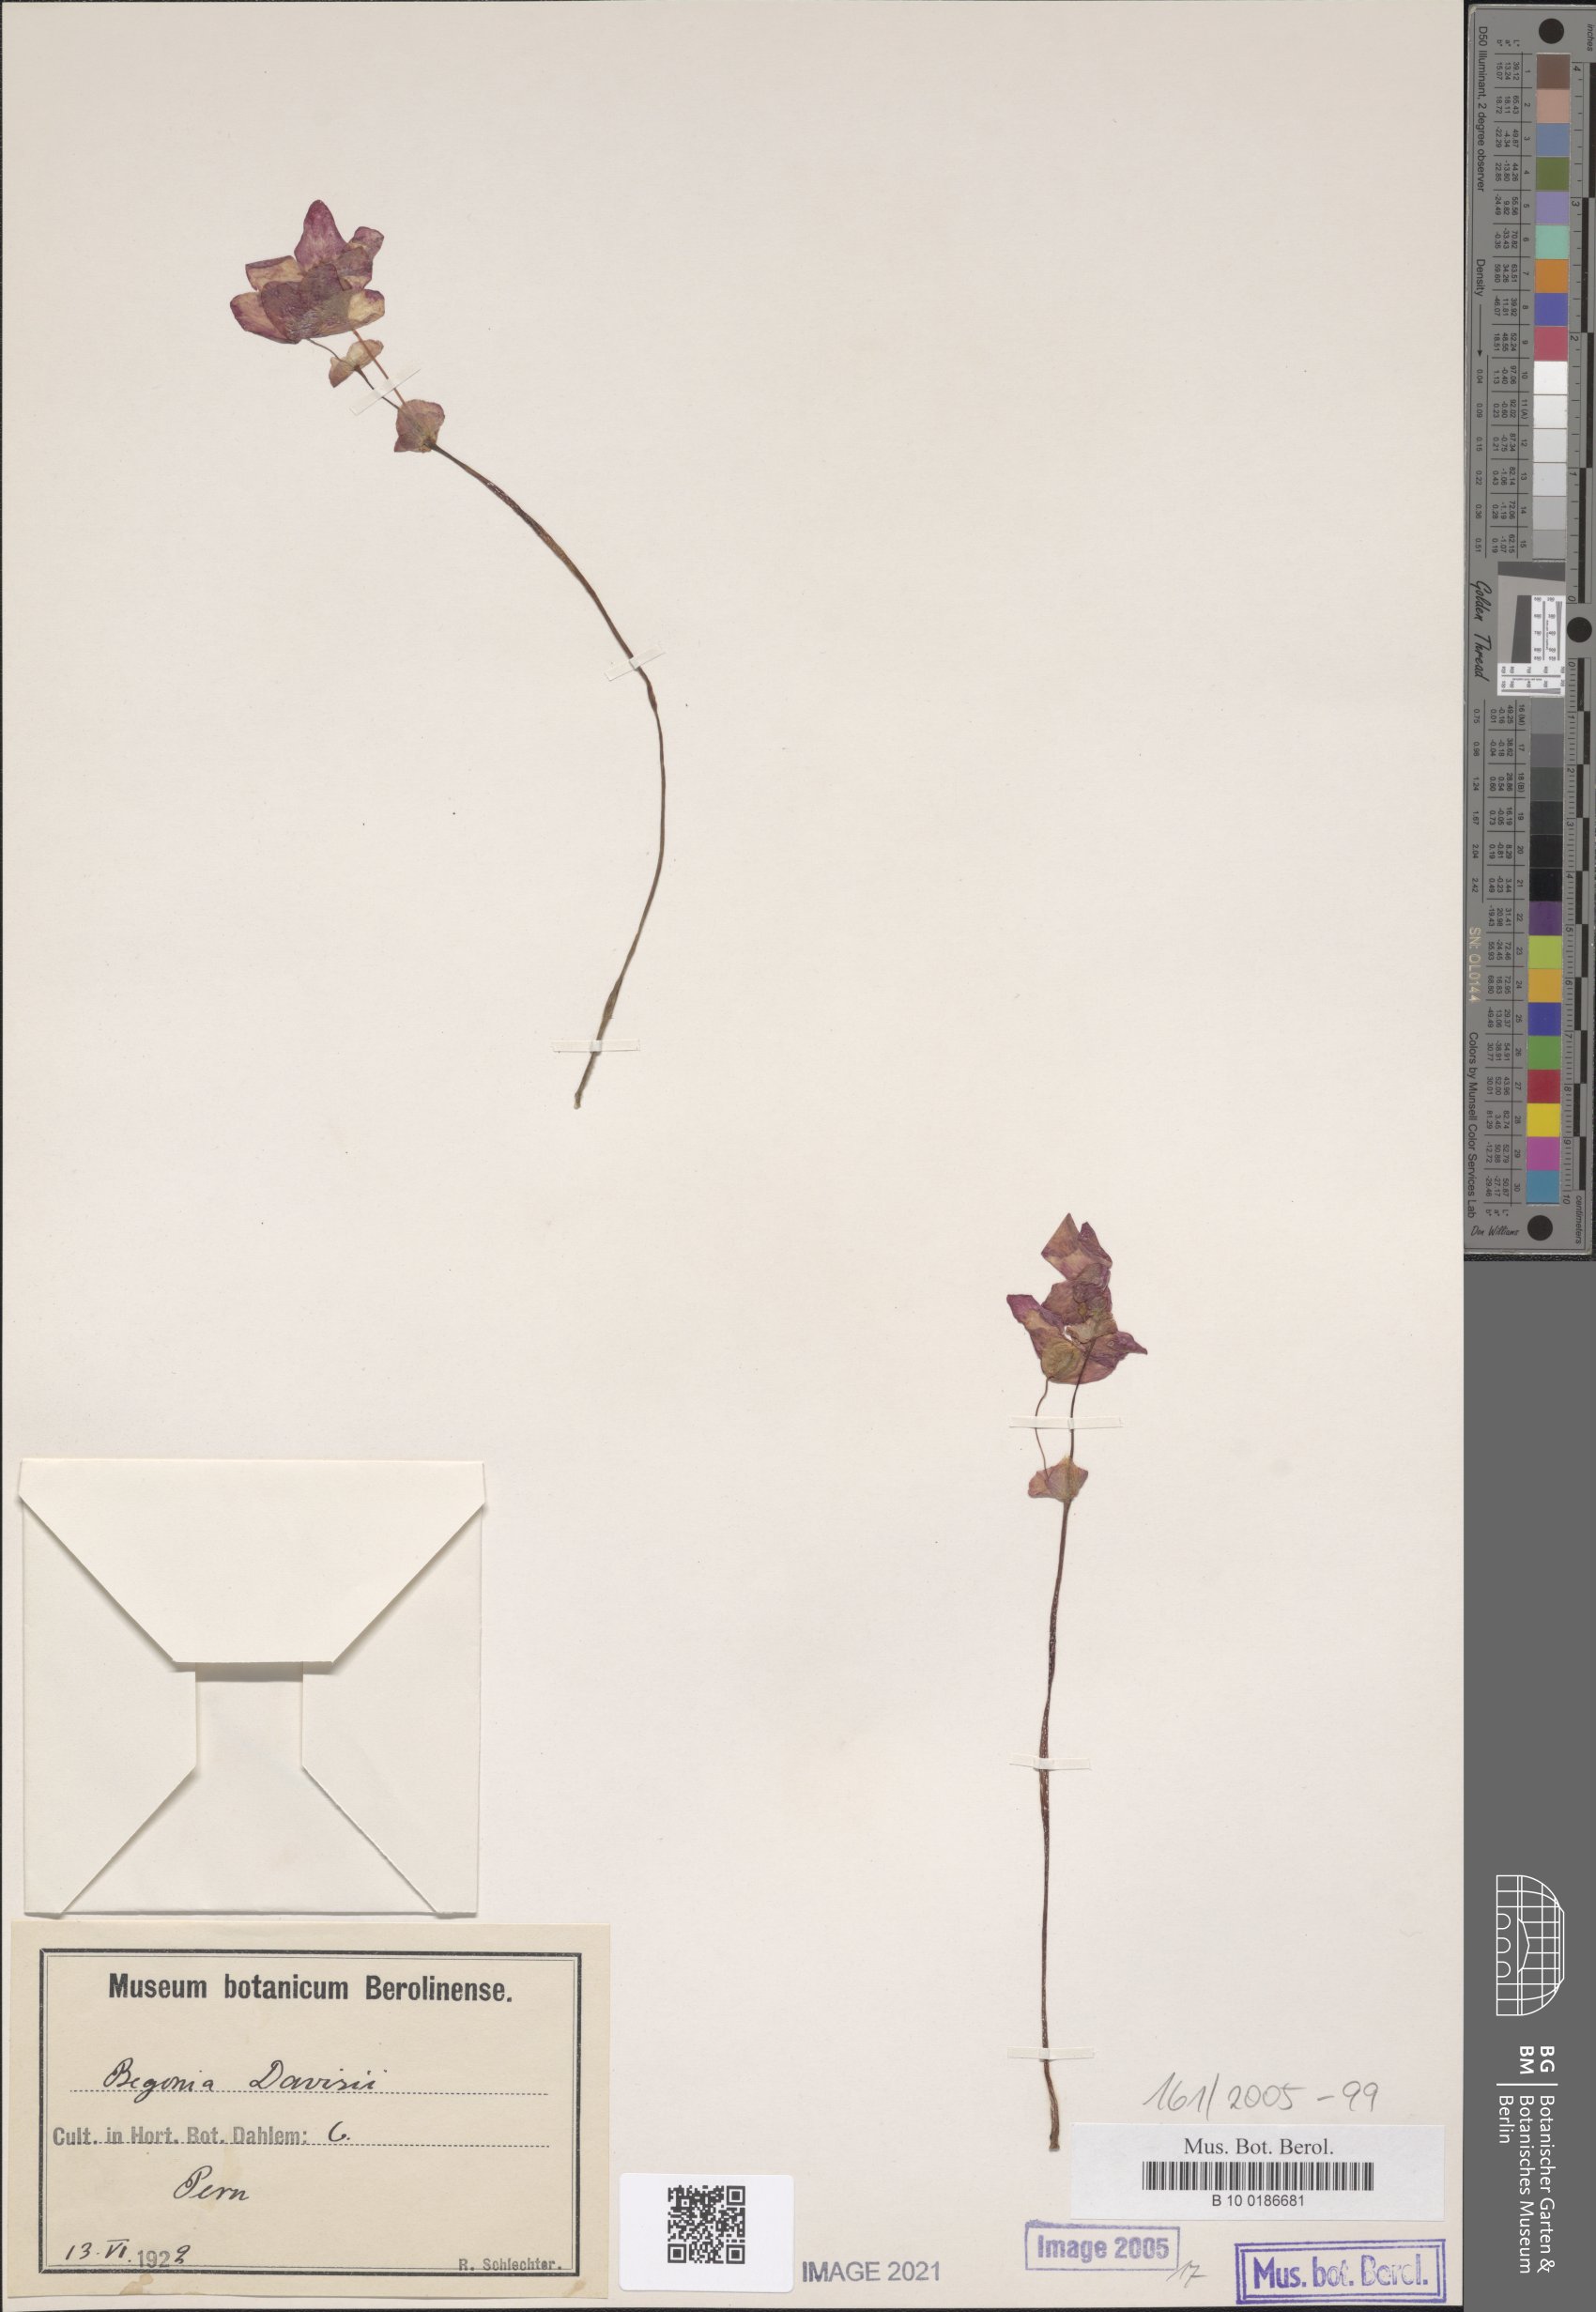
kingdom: Plantae
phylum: Tracheophyta
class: Magnoliopsida
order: Cucurbitales
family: Begoniaceae
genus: Begonia
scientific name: Begonia weddeliana
